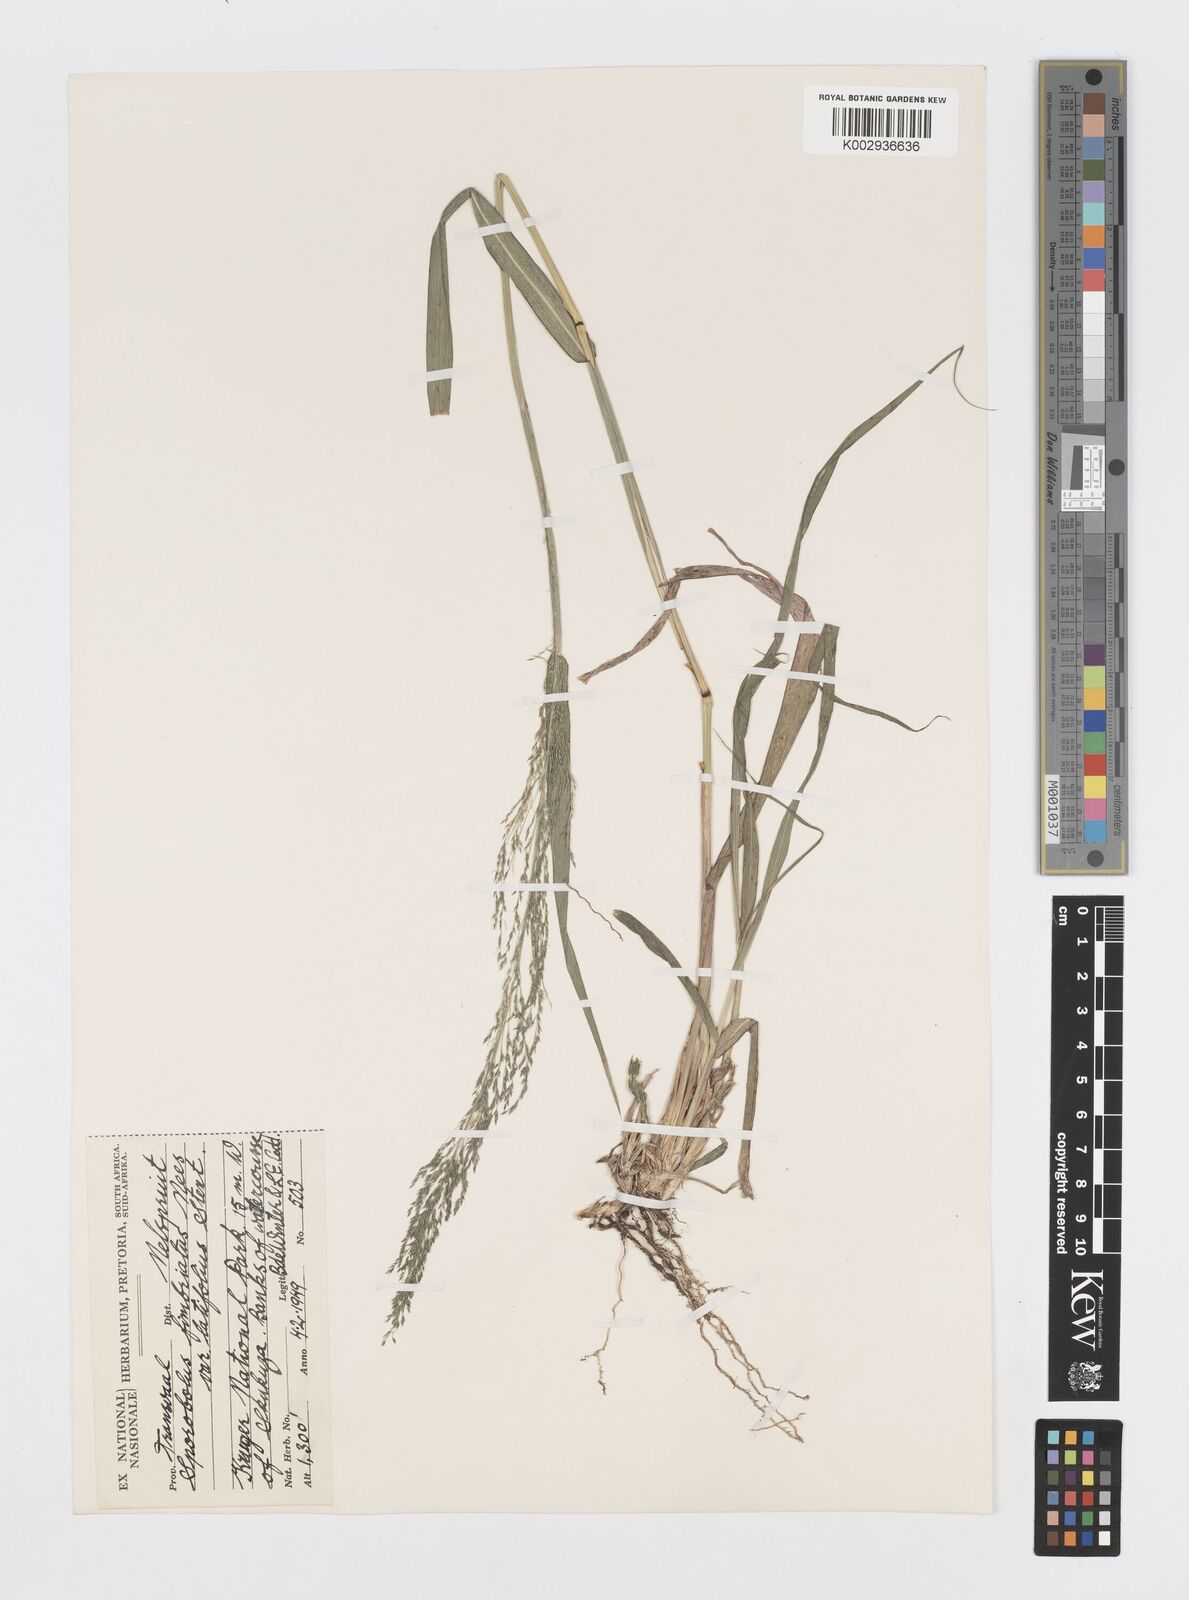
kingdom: Plantae
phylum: Tracheophyta
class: Liliopsida
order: Poales
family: Poaceae
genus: Sporobolus
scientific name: Sporobolus fimbriatus
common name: Fringed dropseed
